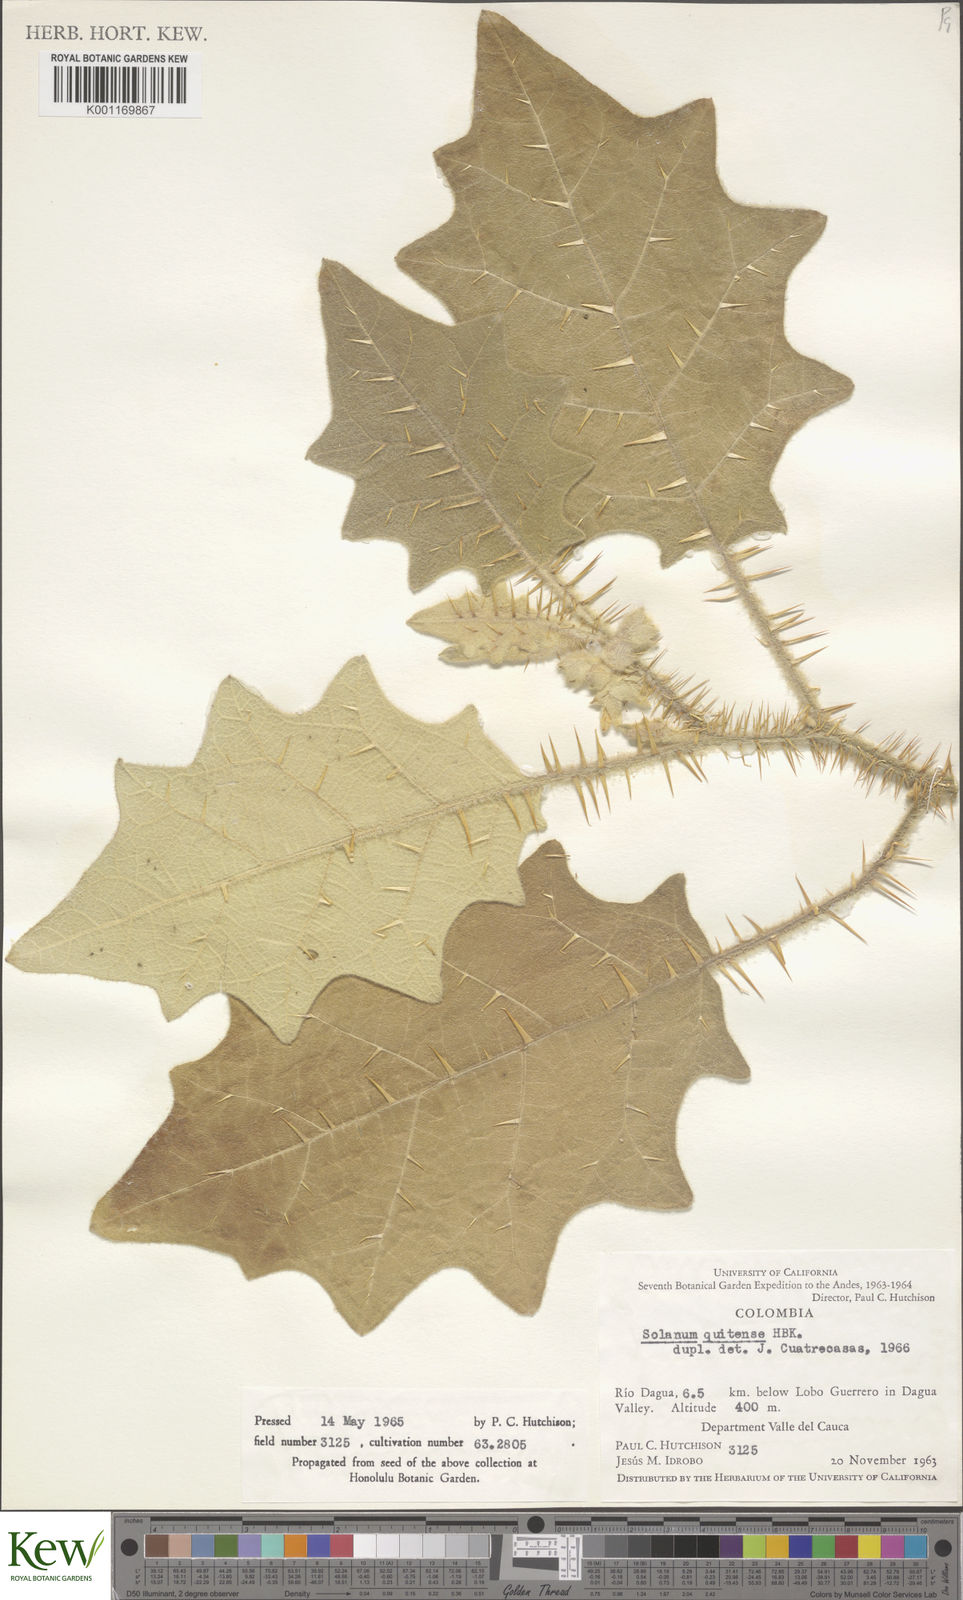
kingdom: Plantae
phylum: Tracheophyta
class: Magnoliopsida
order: Solanales
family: Solanaceae
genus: Solanum
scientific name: Solanum quitoense
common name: Quito-orange
